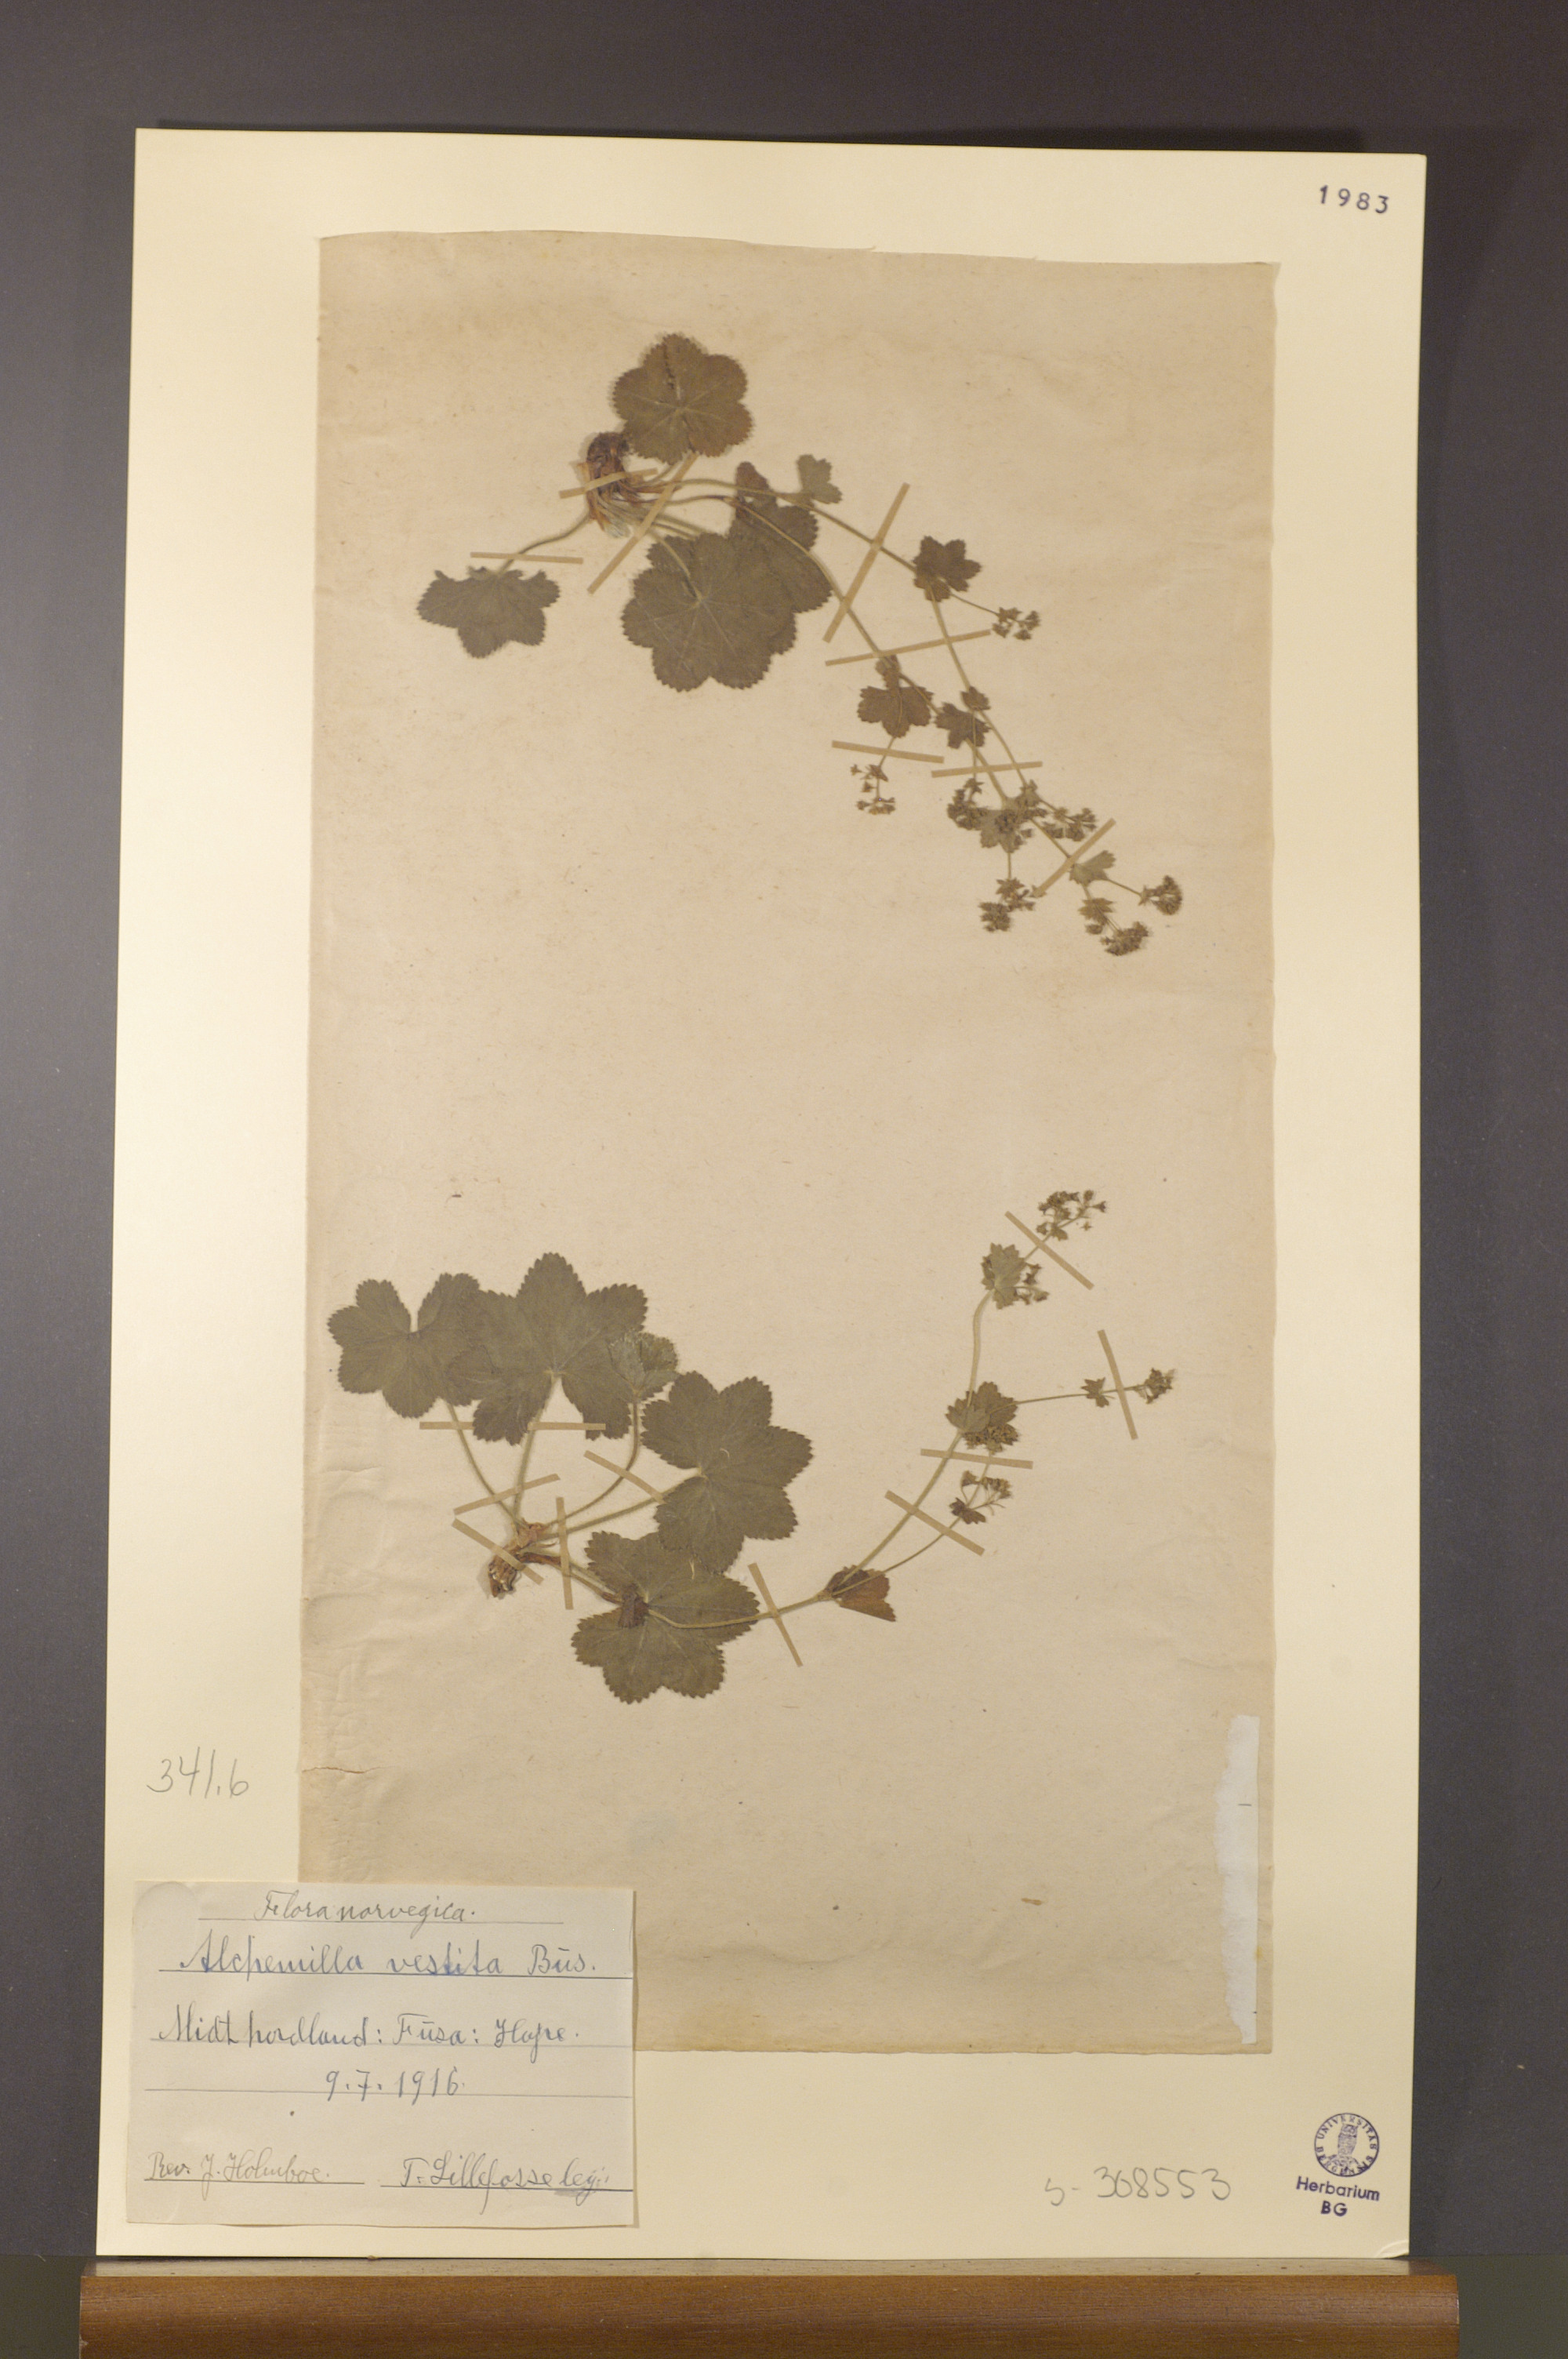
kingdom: Plantae
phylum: Tracheophyta
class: Magnoliopsida
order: Rosales
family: Rosaceae
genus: Alchemilla
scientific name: Alchemilla filicaulis
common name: Hairy lady's-mantle
